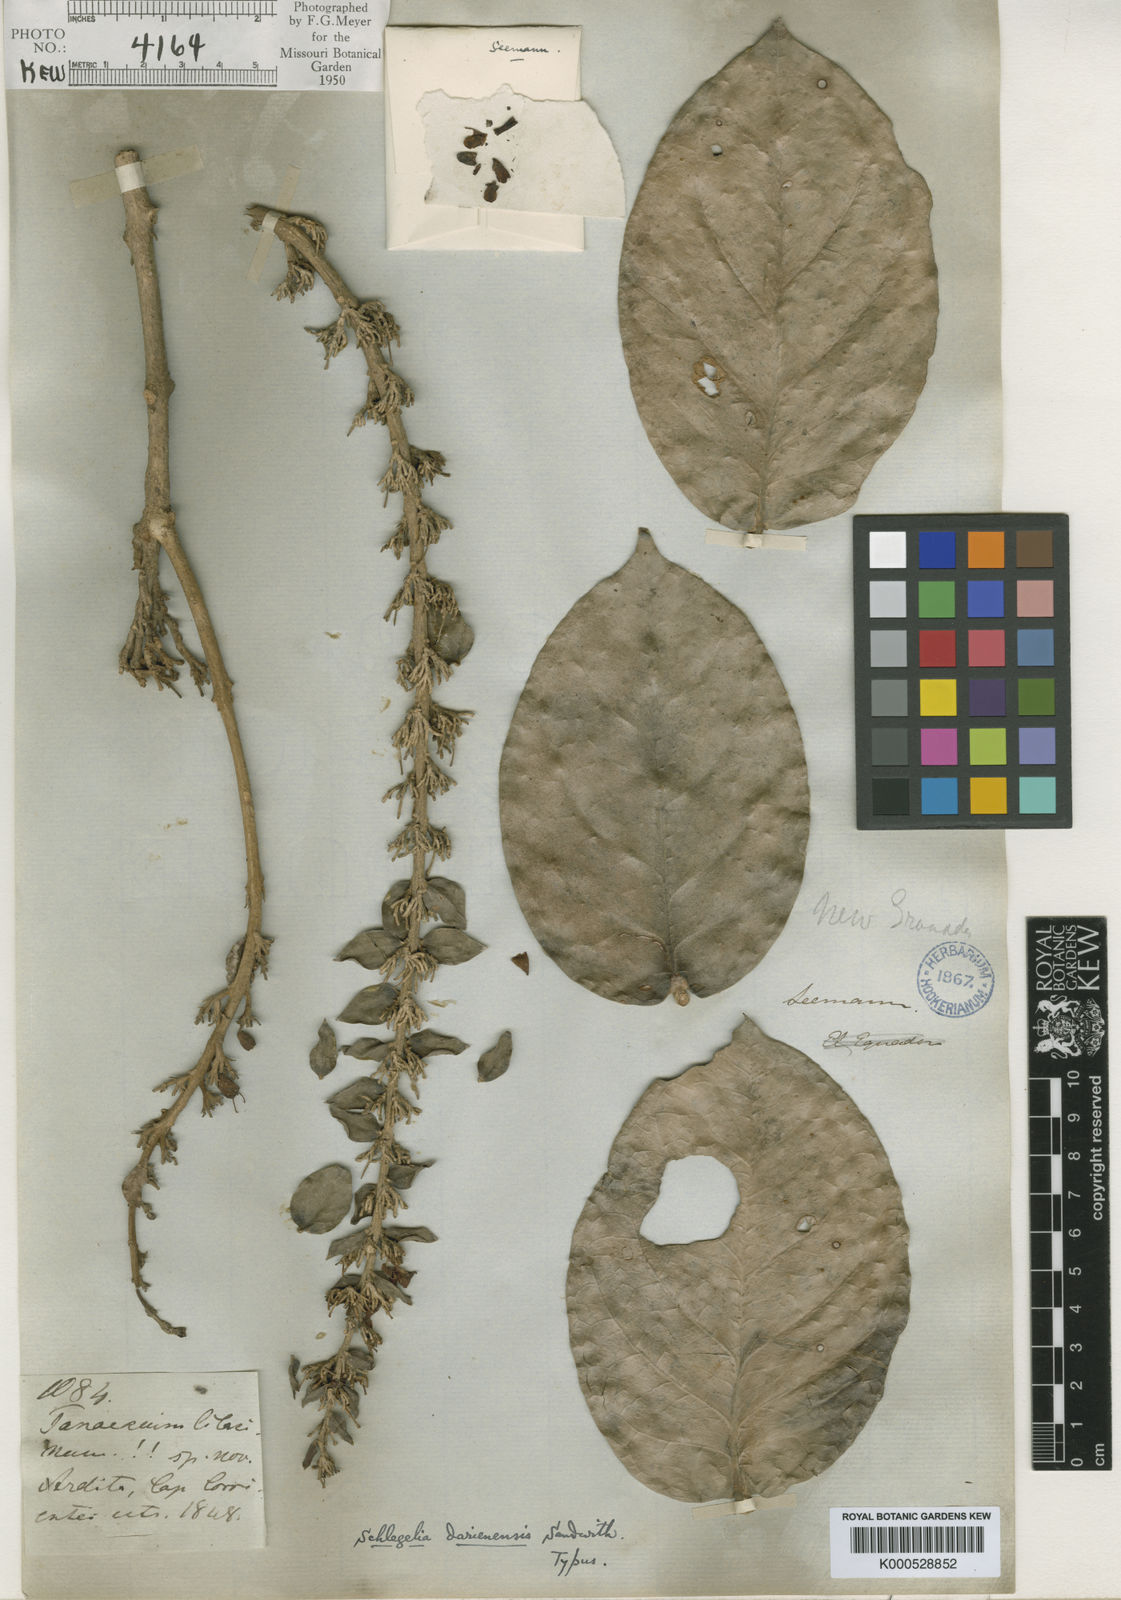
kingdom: Plantae
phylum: Tracheophyta
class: Magnoliopsida
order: Lamiales
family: Schlegeliaceae
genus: Schlegelia
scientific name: Schlegelia darienensis
